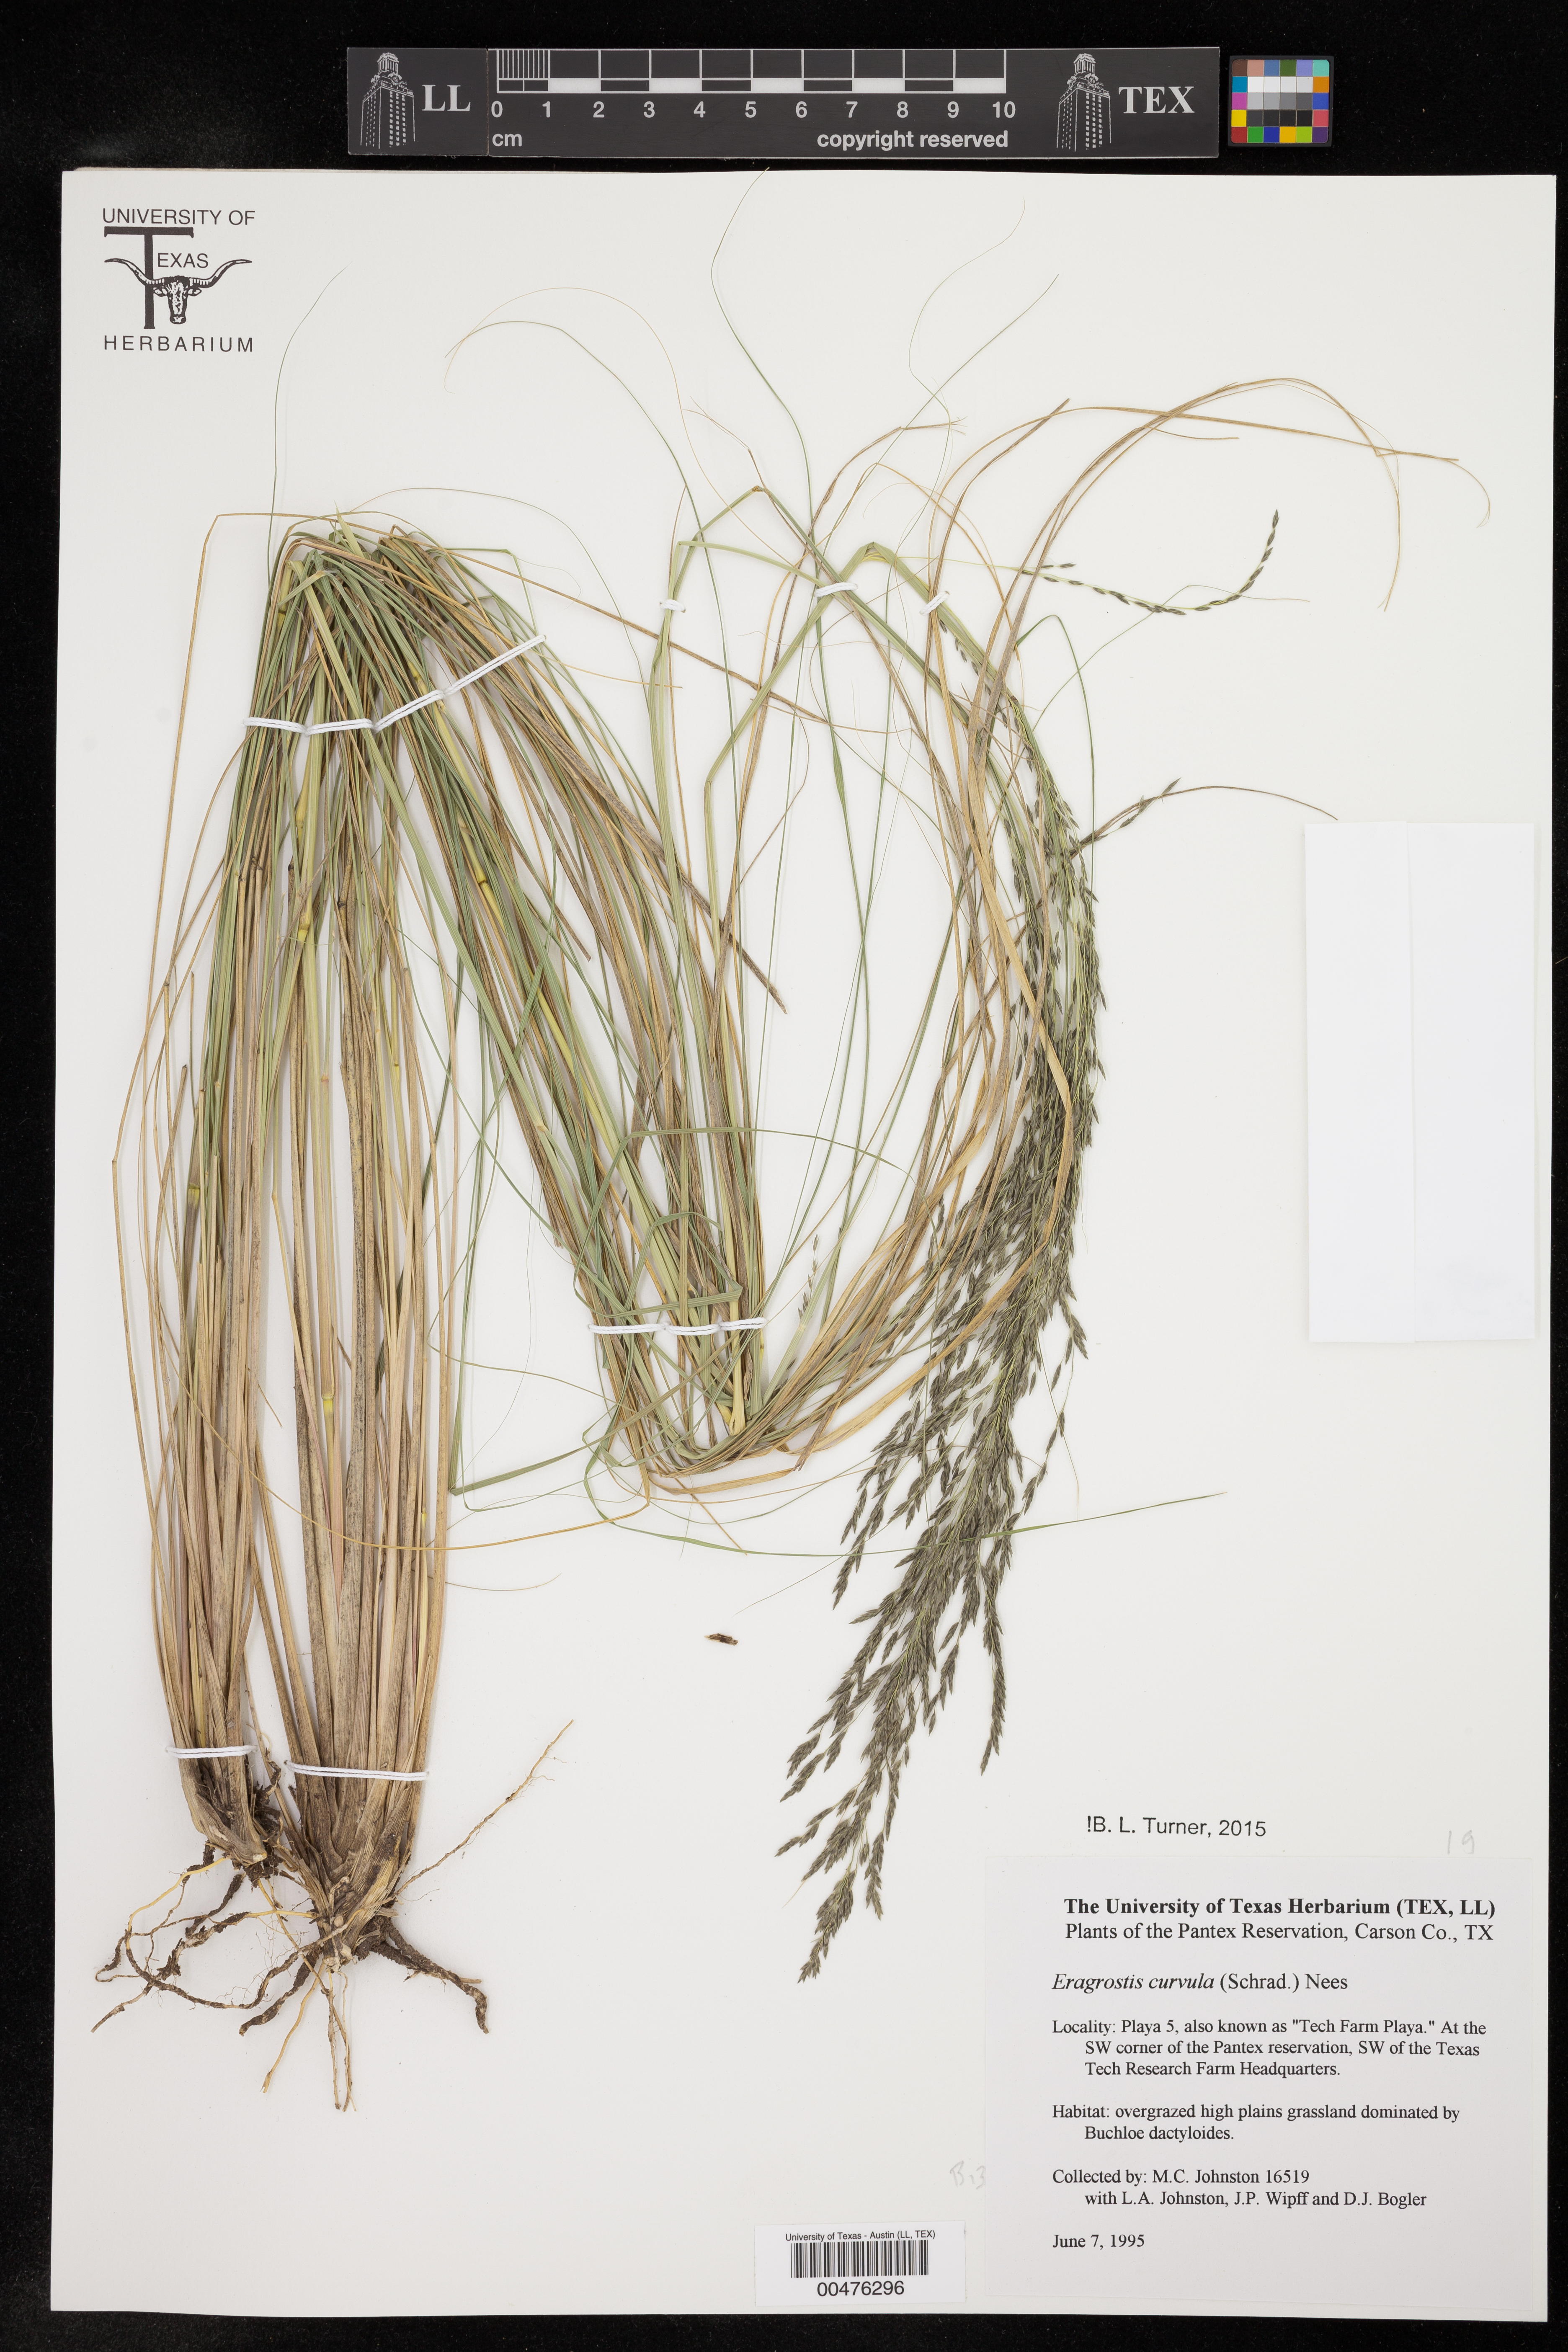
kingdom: Plantae
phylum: Tracheophyta
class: Liliopsida
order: Poales
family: Poaceae
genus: Eragrostis
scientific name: Eragrostis curvula
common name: African love-grass
